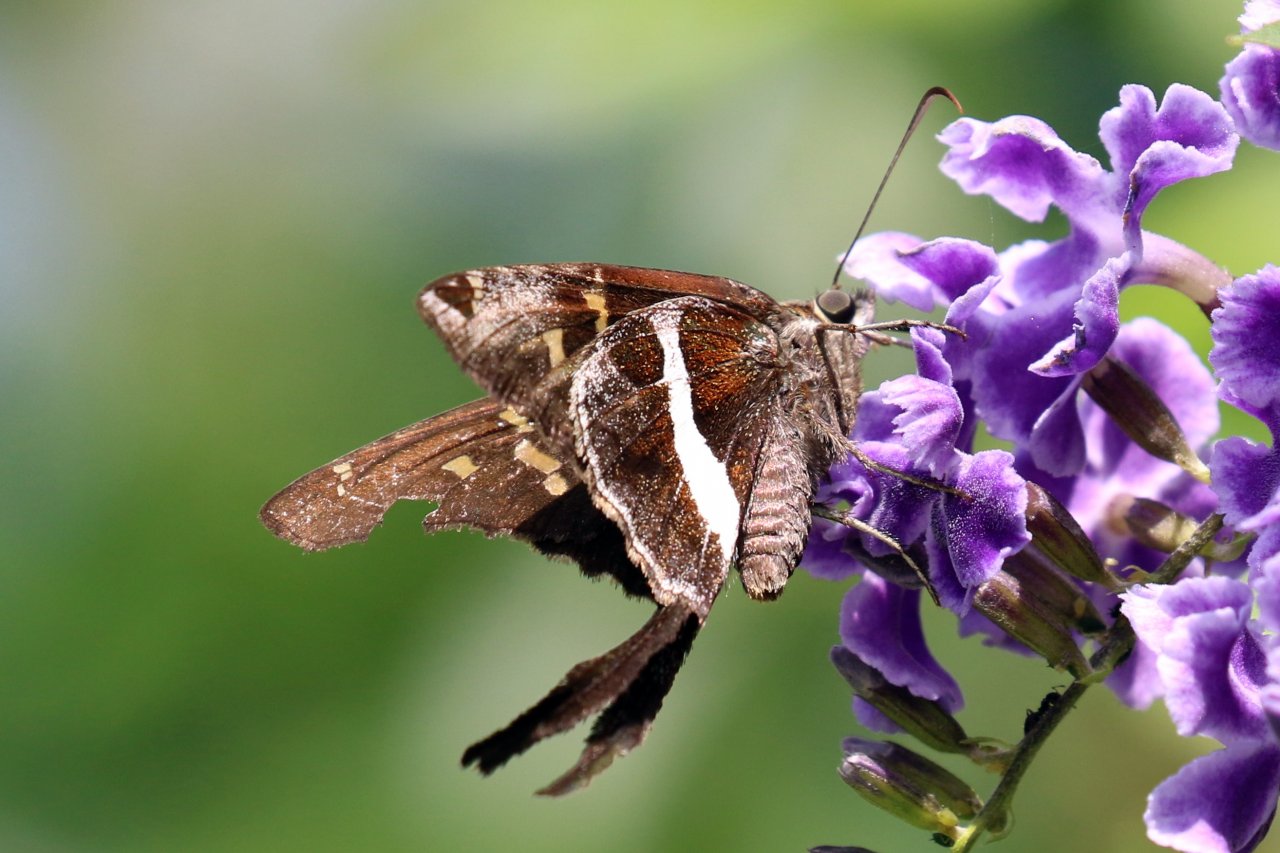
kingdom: Animalia
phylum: Arthropoda
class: Insecta
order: Lepidoptera
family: Hesperiidae
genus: Chioides
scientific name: Chioides catillus
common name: White-striped Longtail
